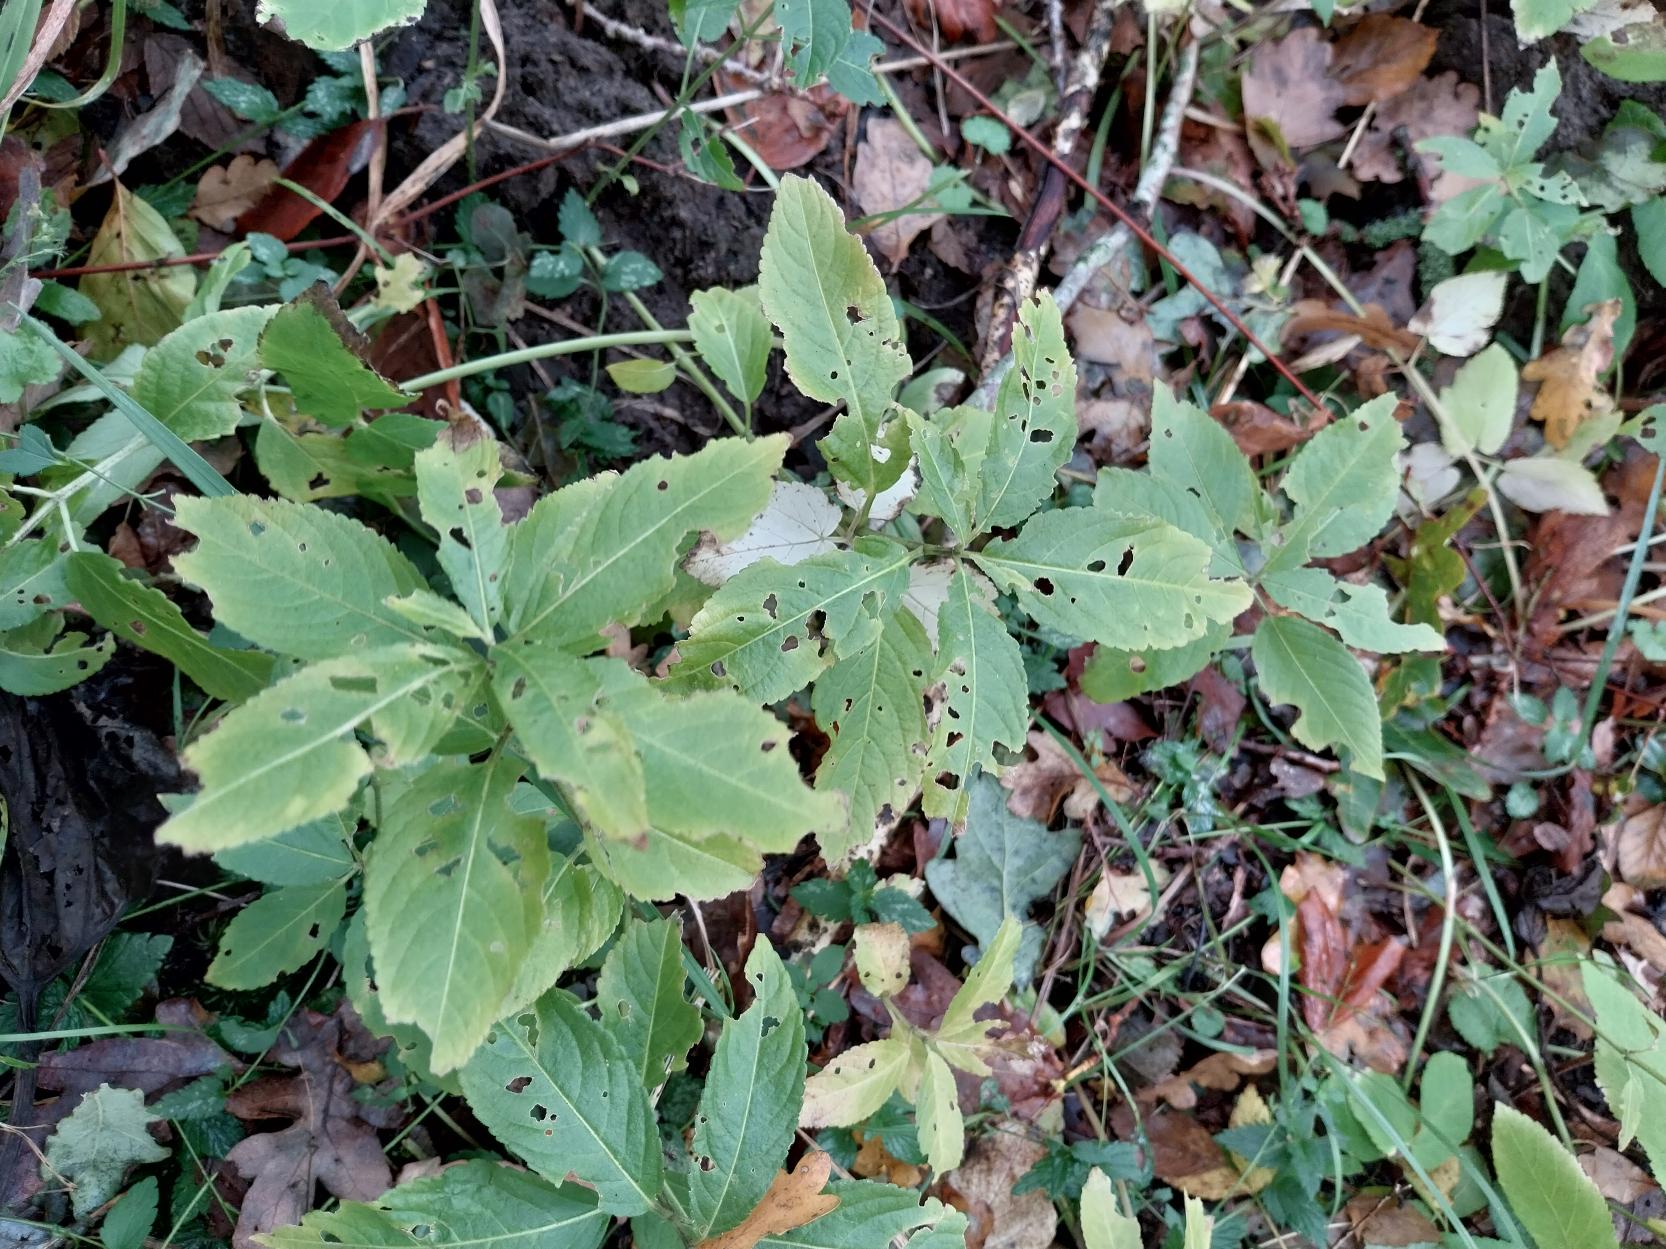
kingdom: Plantae
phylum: Tracheophyta
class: Magnoliopsida
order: Malpighiales
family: Euphorbiaceae
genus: Mercurialis
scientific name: Mercurialis perennis
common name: Almindelig bingelurt
